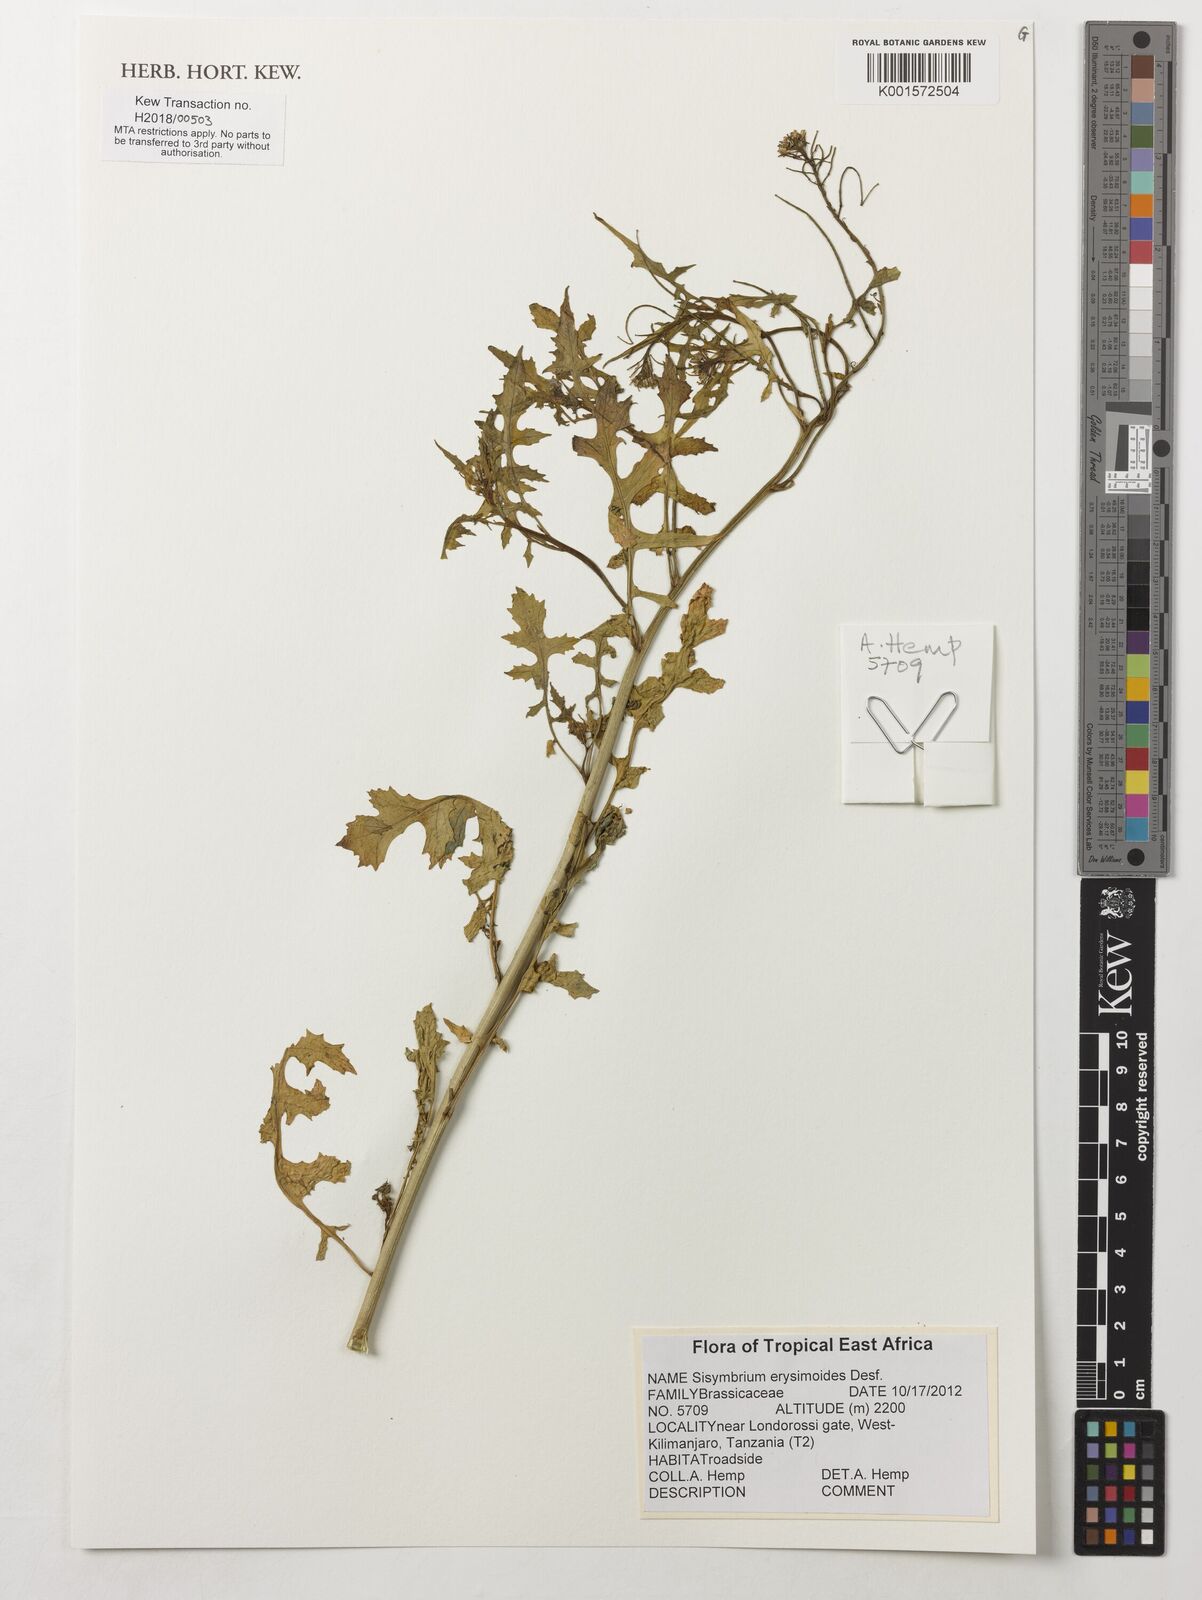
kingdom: Plantae
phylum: Tracheophyta
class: Magnoliopsida
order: Brassicales
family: Brassicaceae
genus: Sisymbrium
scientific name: Sisymbrium erysimoides
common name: French rocket
